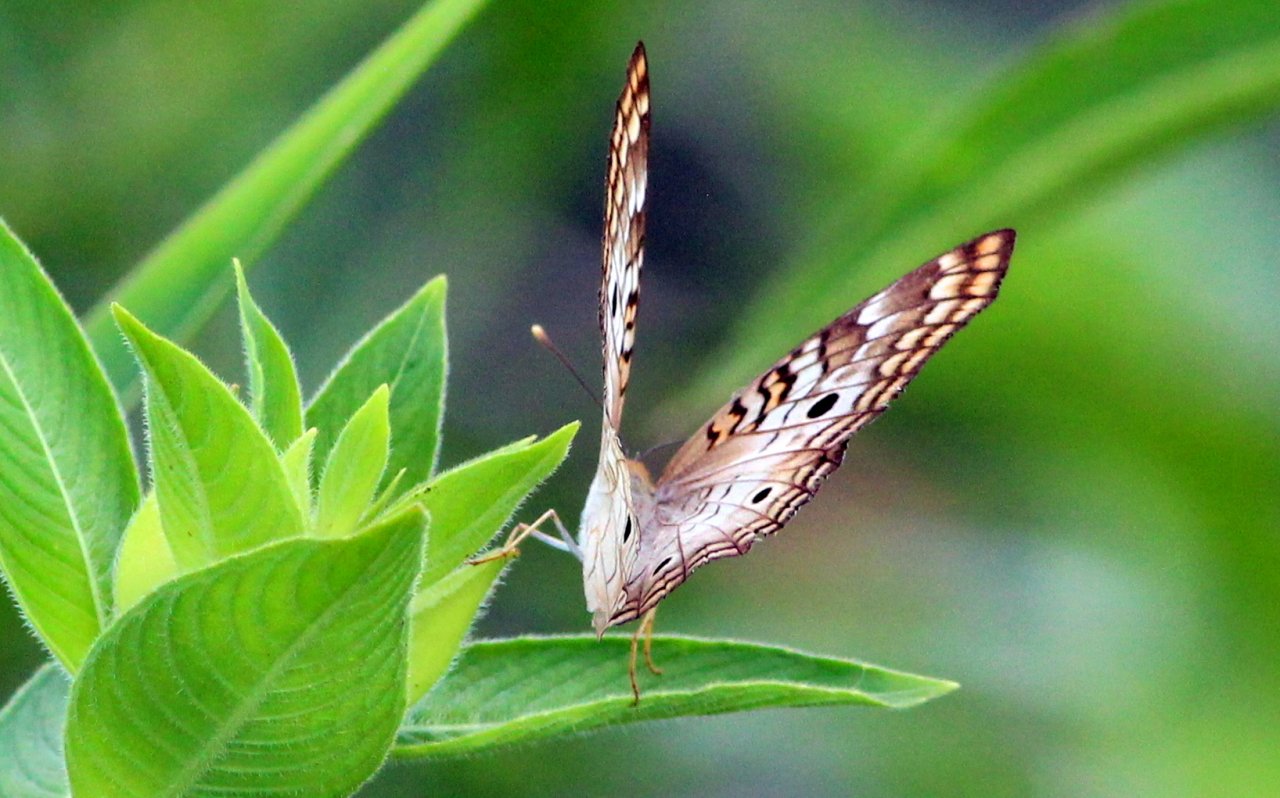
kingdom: Animalia
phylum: Arthropoda
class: Insecta
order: Lepidoptera
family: Nymphalidae
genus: Anartia
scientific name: Anartia jatrophae
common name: White Peacock
